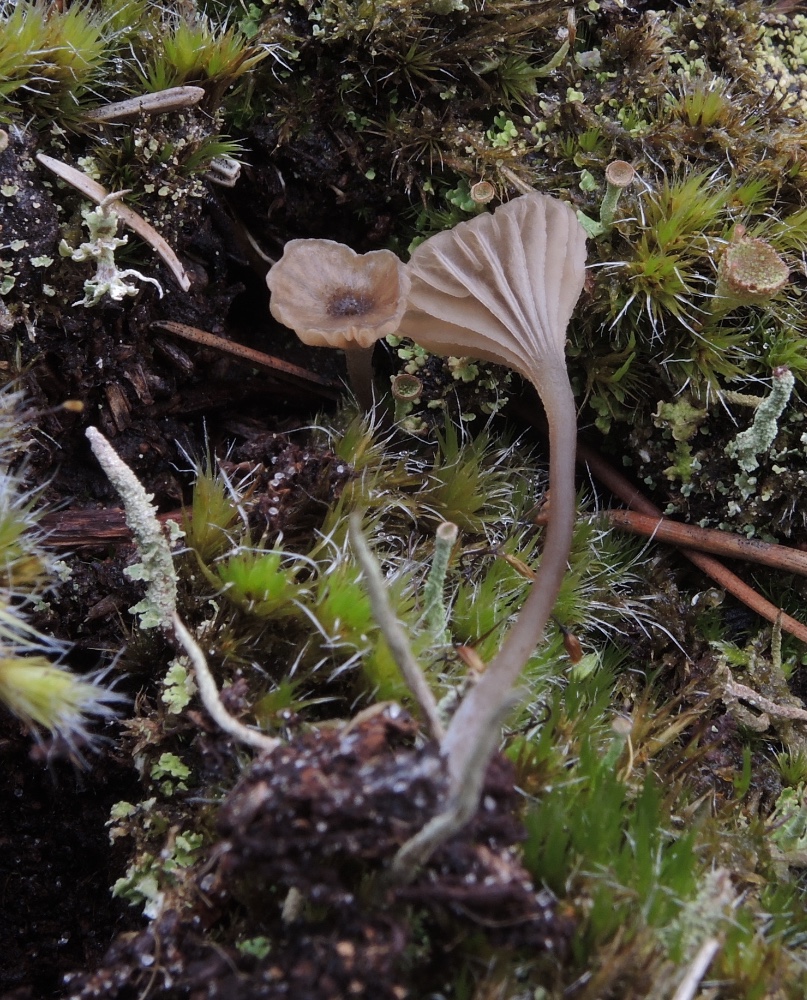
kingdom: Fungi
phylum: Basidiomycota
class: Agaricomycetes
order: Agaricales
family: Entolomataceae
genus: Entoloma
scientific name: Entoloma rhodocylix
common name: fjernbladet rødblad
